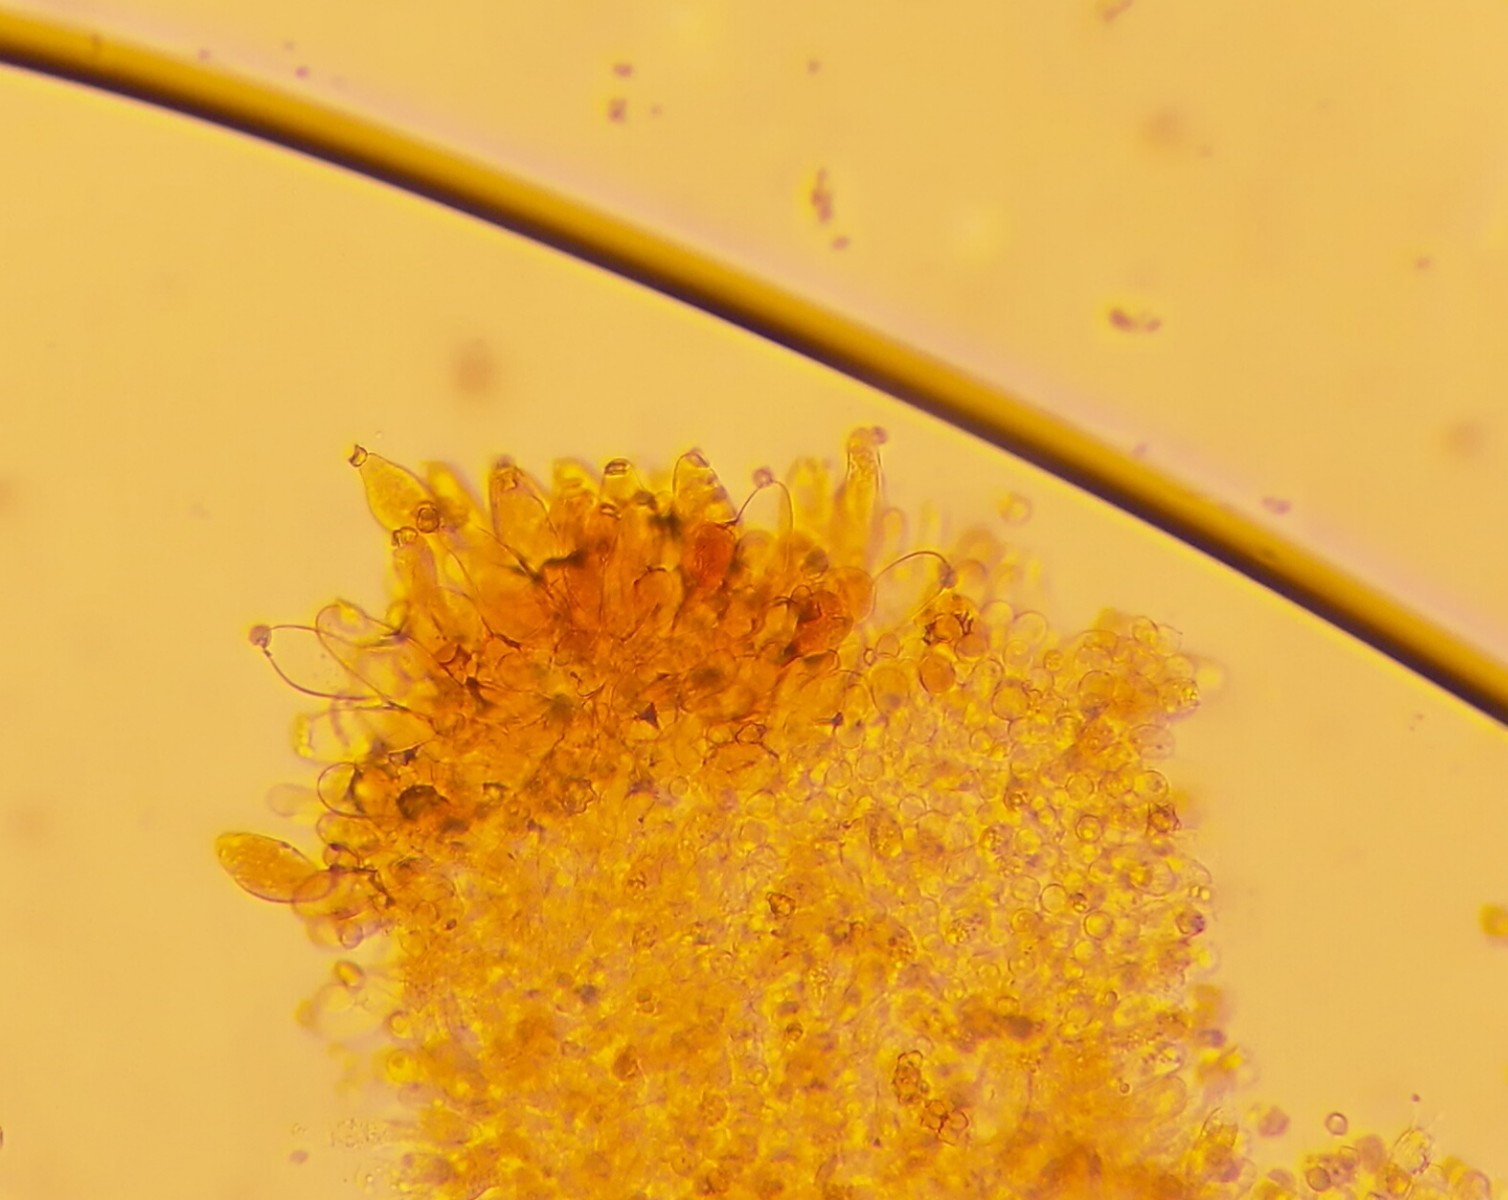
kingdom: Fungi
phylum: Basidiomycota
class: Agaricomycetes
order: Agaricales
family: Inocybaceae
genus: Inocybe
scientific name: Inocybe lanuginosa
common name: uldskællet trævlhat
